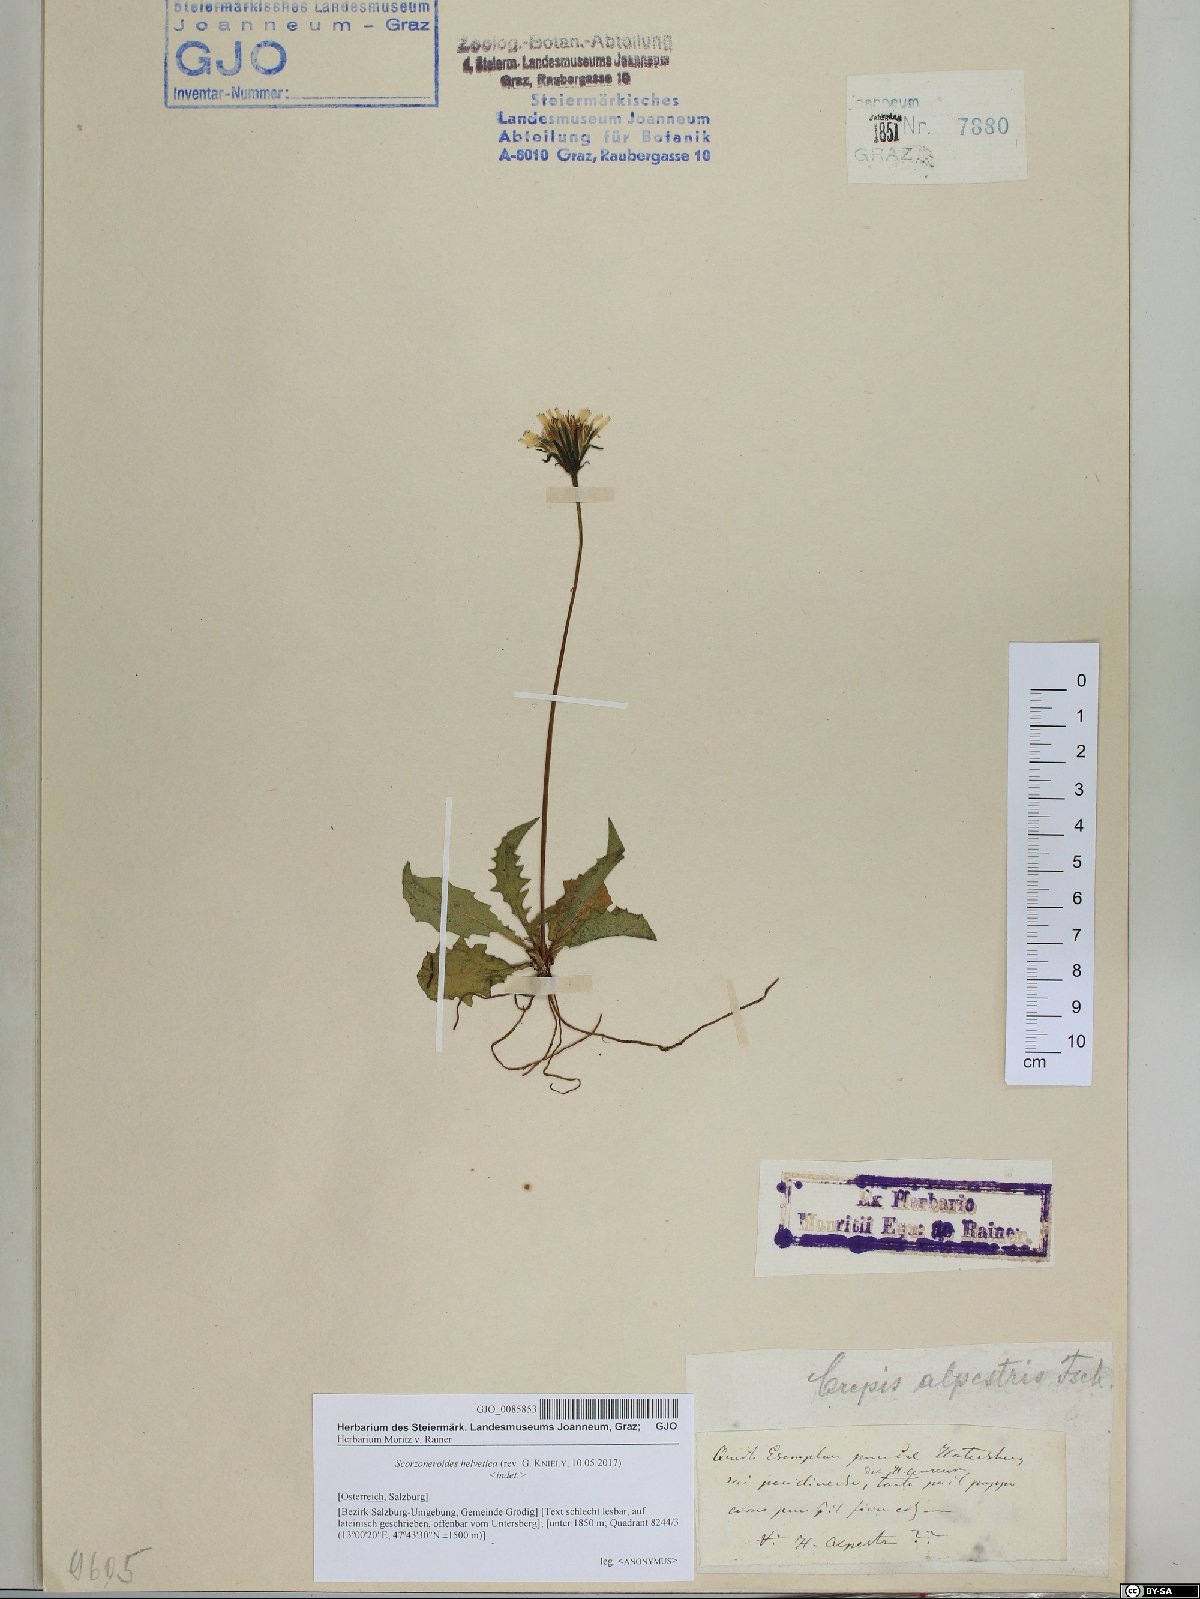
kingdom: Plantae
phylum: Tracheophyta
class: Magnoliopsida
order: Asterales
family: Asteraceae
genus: Scorzoneroides
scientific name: Scorzoneroides helvetica
